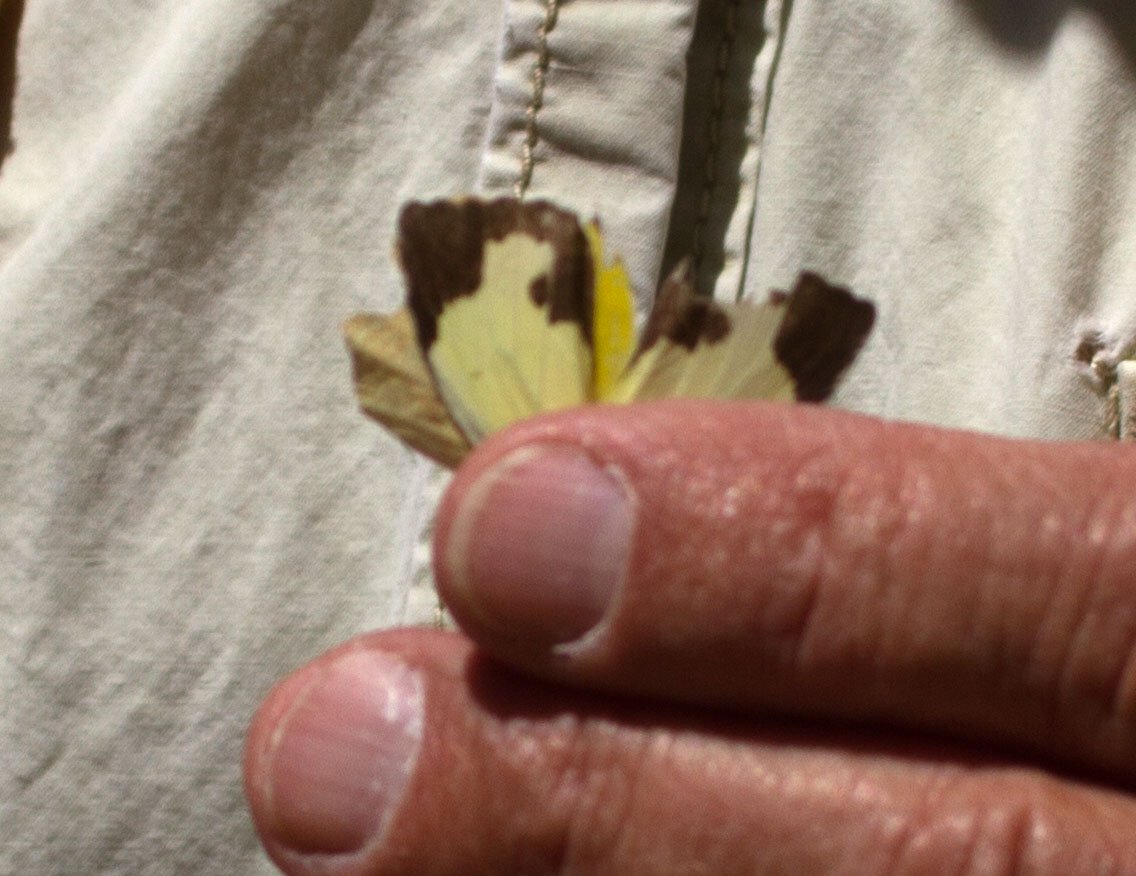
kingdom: Animalia
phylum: Arthropoda
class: Insecta
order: Lepidoptera
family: Pieridae
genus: Eurema
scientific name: Eurema mexicana
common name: Mexican Yellow
